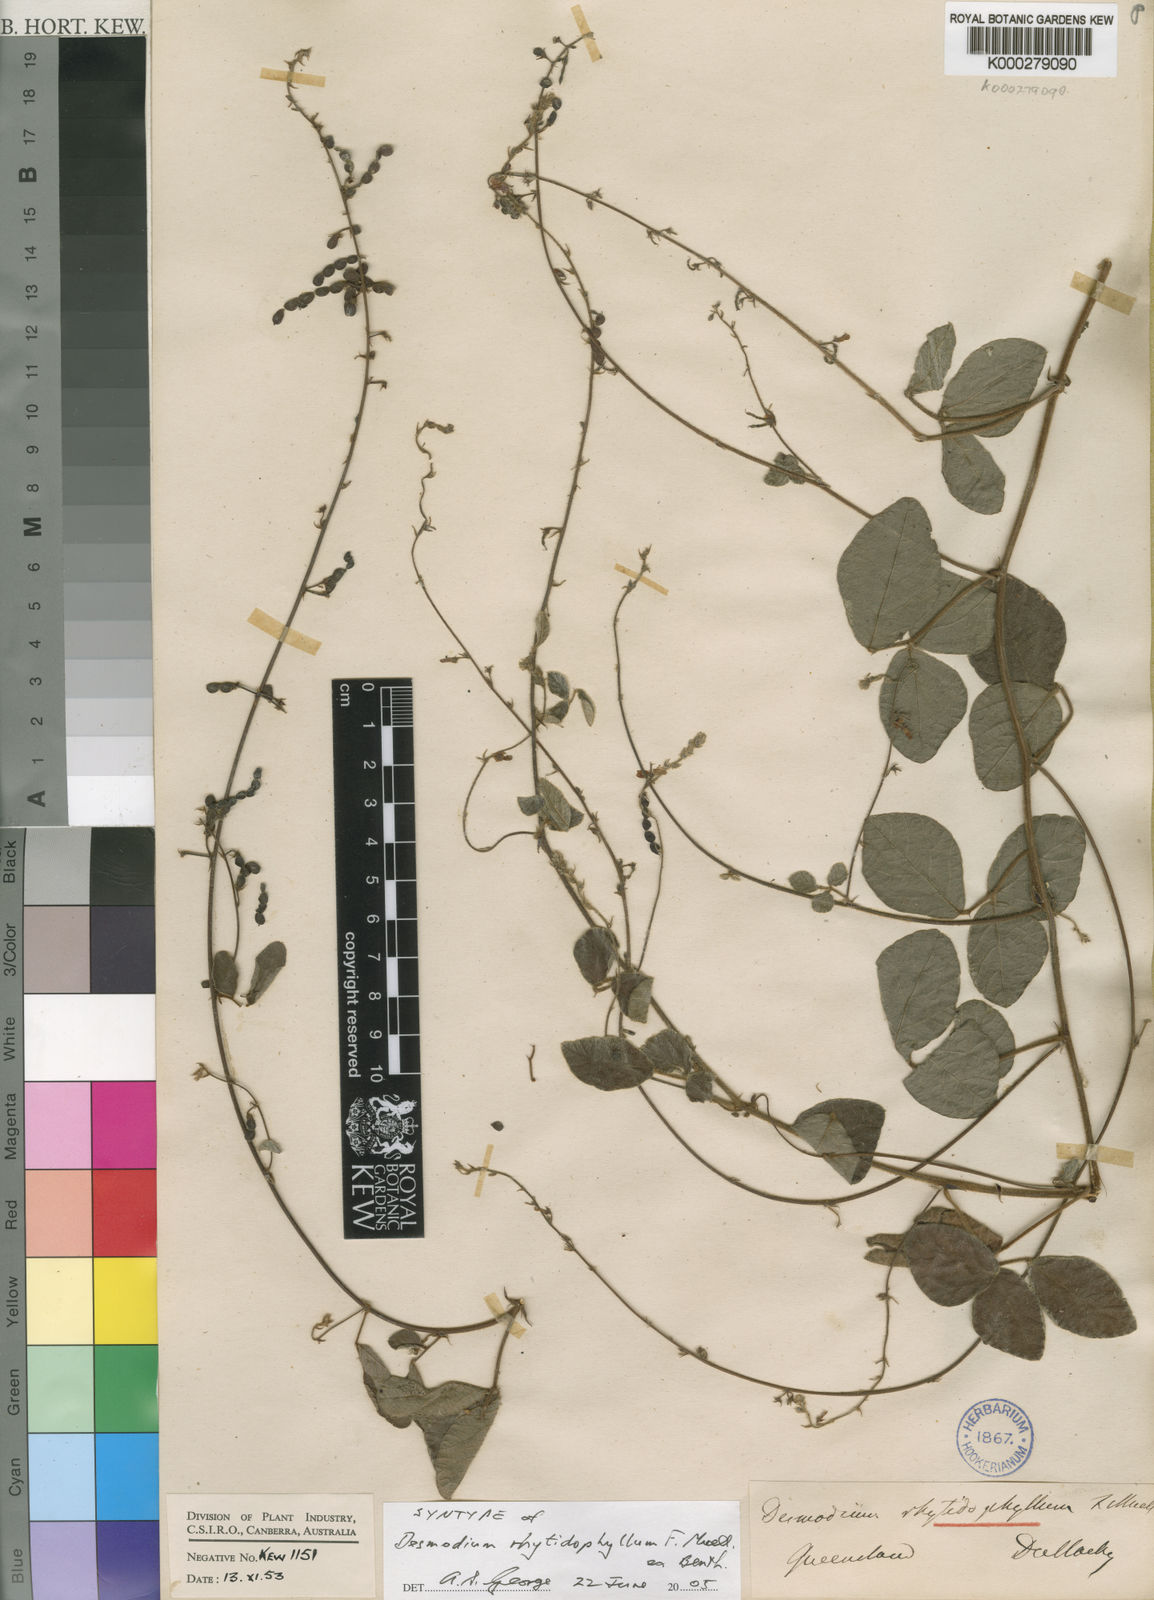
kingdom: Plantae
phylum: Tracheophyta
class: Magnoliopsida
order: Fabales
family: Fabaceae
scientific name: Fabaceae
